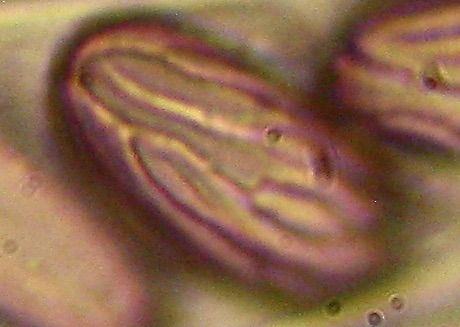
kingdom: Fungi
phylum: Ascomycota
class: Pezizomycetes
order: Pezizales
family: Ascobolaceae
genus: Ascobolus
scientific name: Ascobolus
